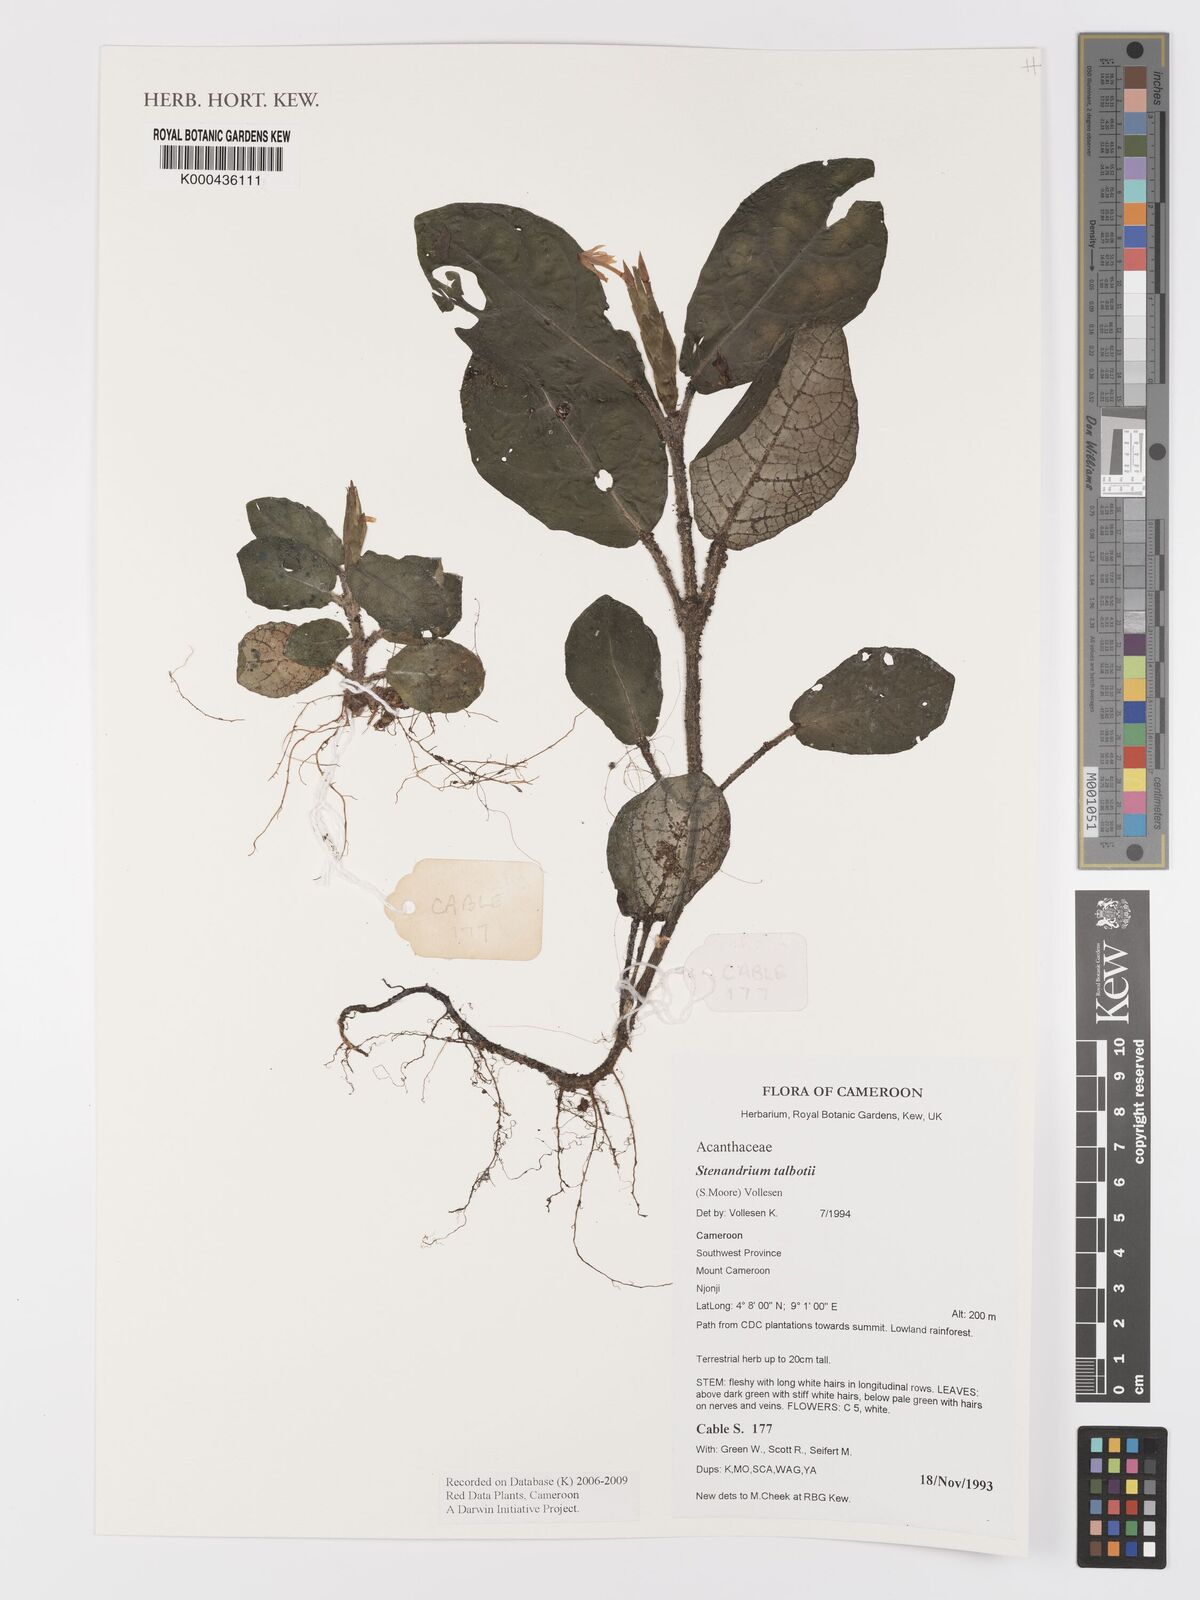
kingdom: Plantae
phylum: Tracheophyta
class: Magnoliopsida
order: Lamiales
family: Acanthaceae
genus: Stenandriopsis
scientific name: Stenandriopsis talbotii
